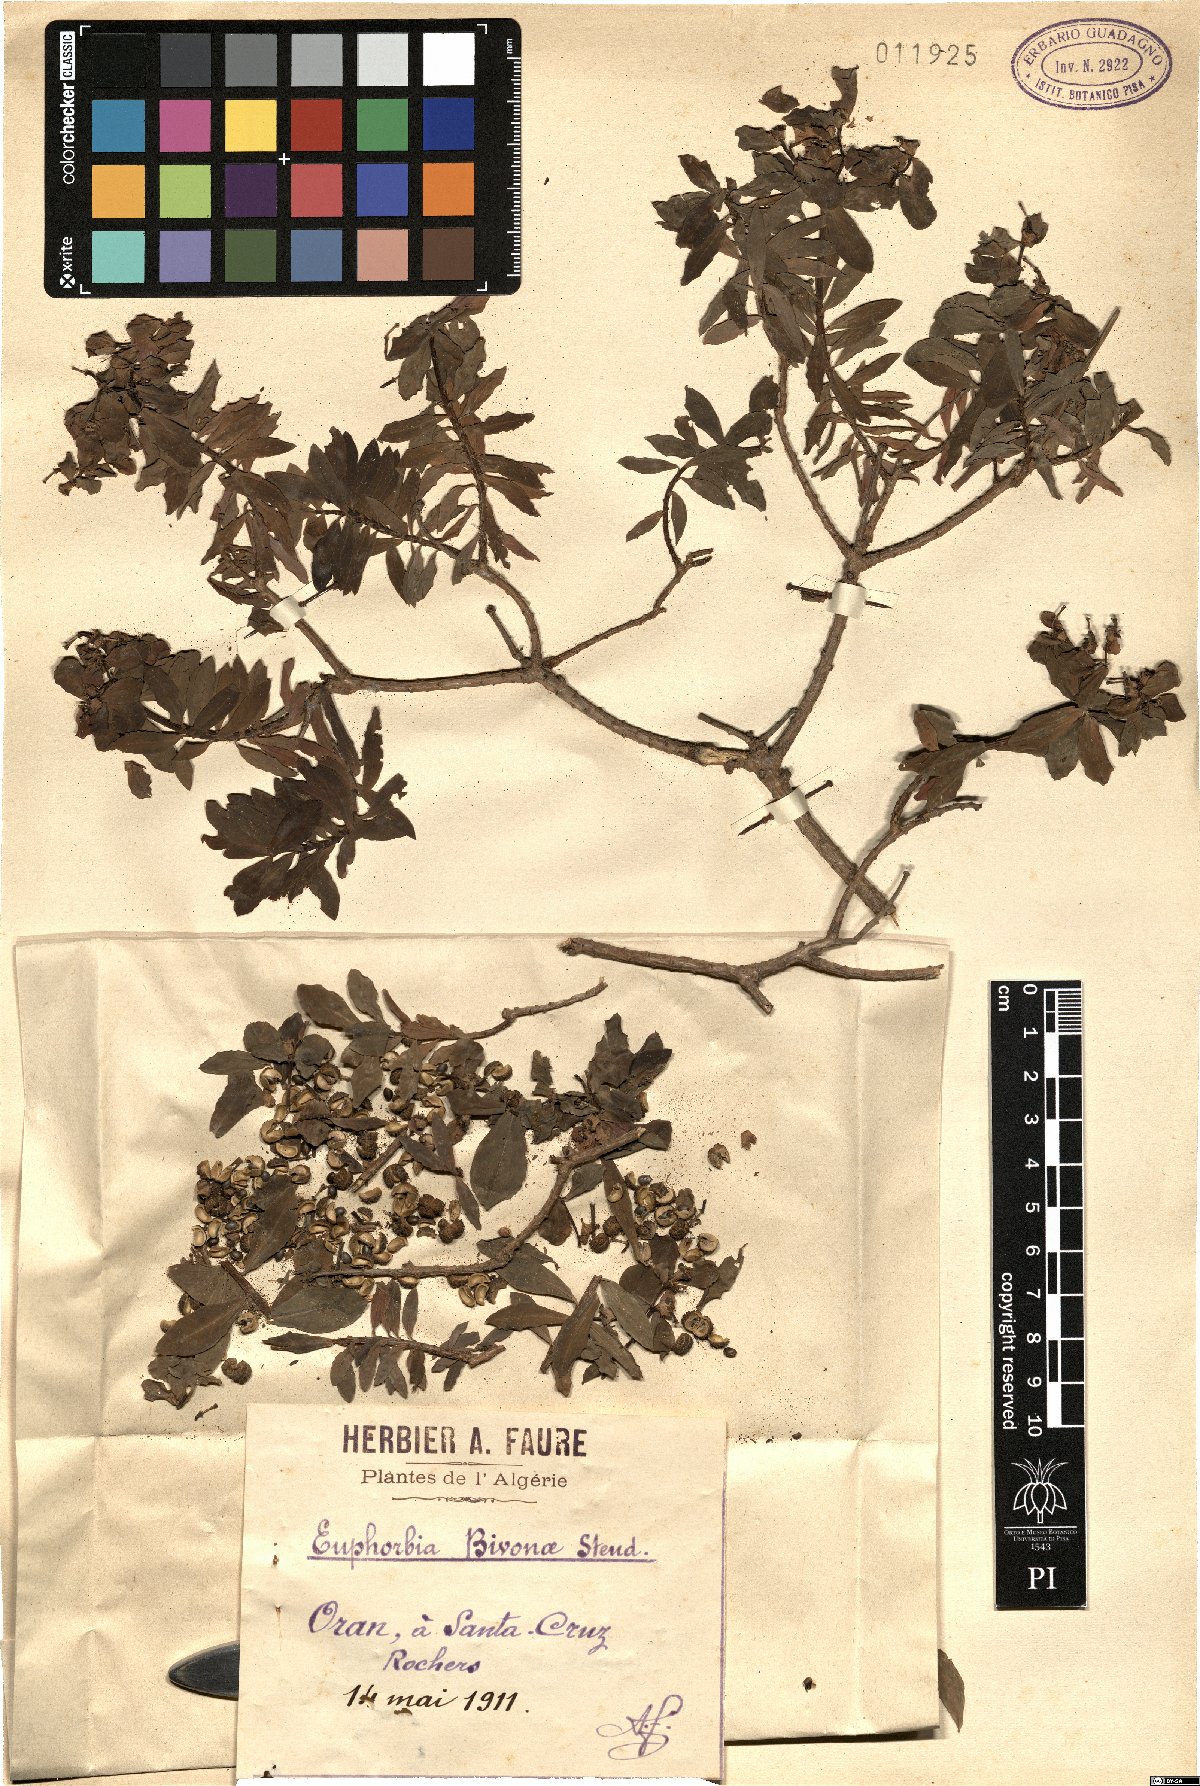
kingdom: Plantae
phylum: Tracheophyta
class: Magnoliopsida
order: Malpighiales
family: Euphorbiaceae
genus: Euphorbia
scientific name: Euphorbia bivonae
